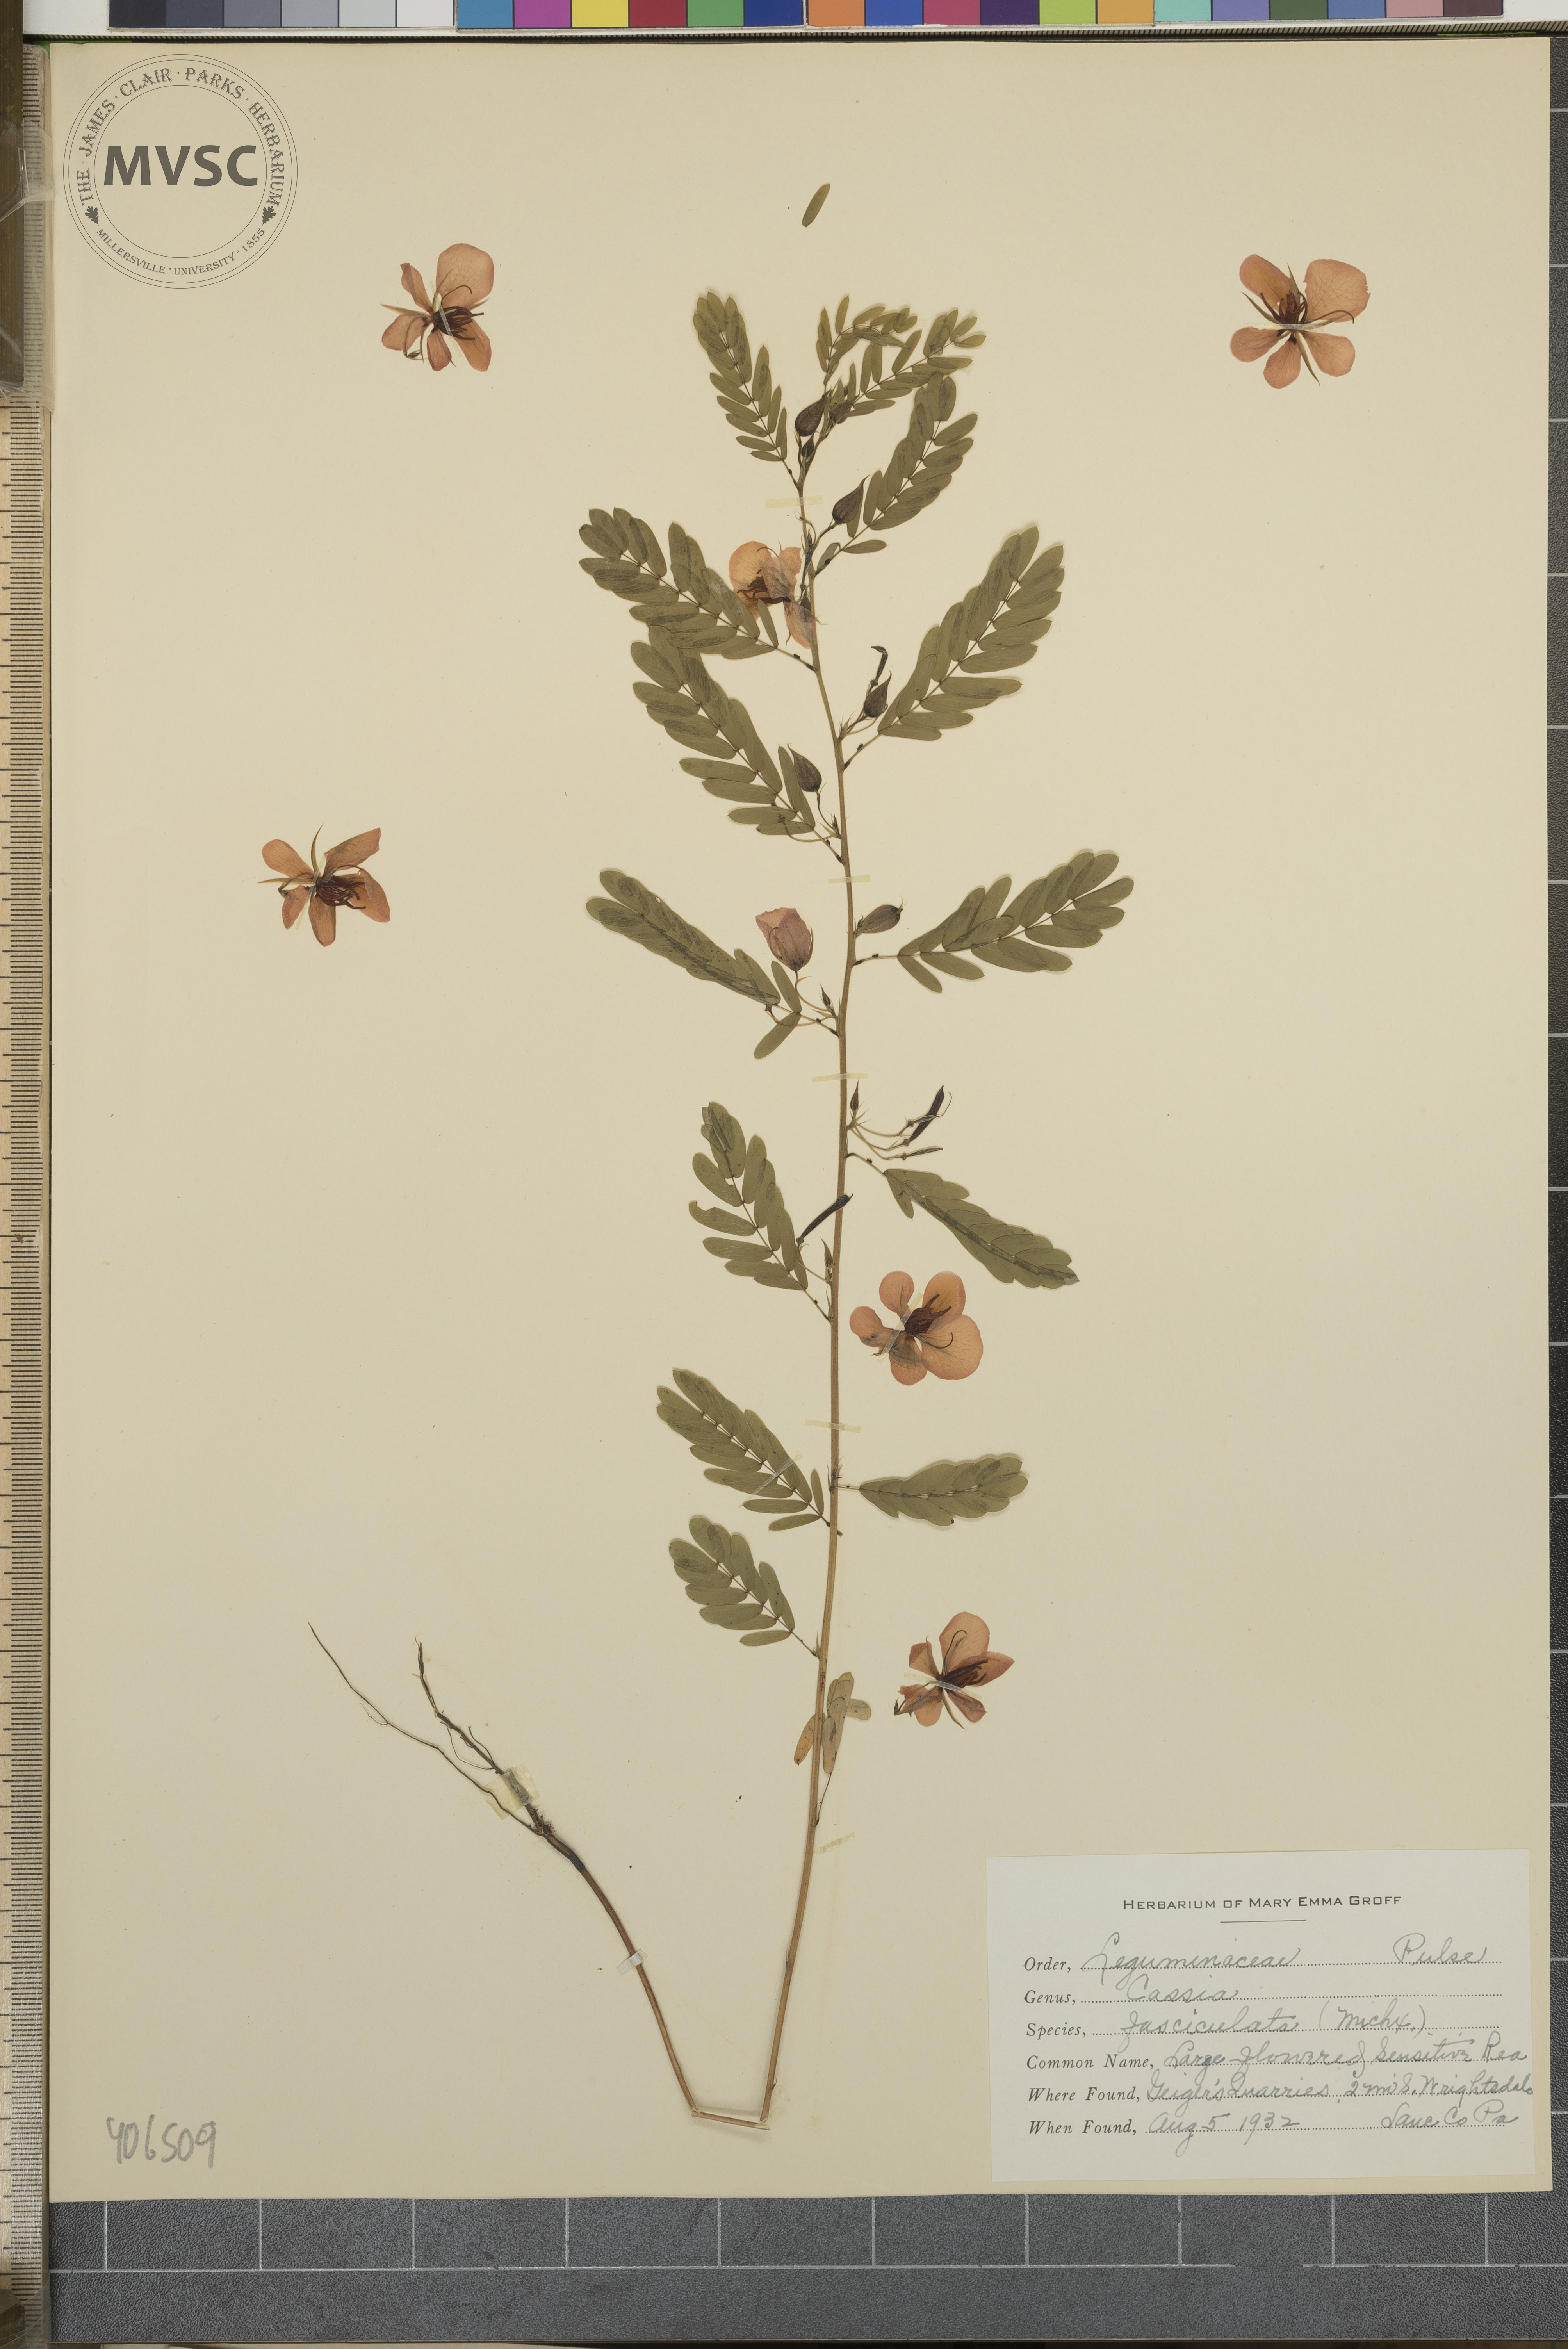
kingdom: Plantae
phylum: Tracheophyta
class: Magnoliopsida
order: Fabales
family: Fabaceae
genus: Chamaecrista
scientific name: Chamaecrista fasciculata
